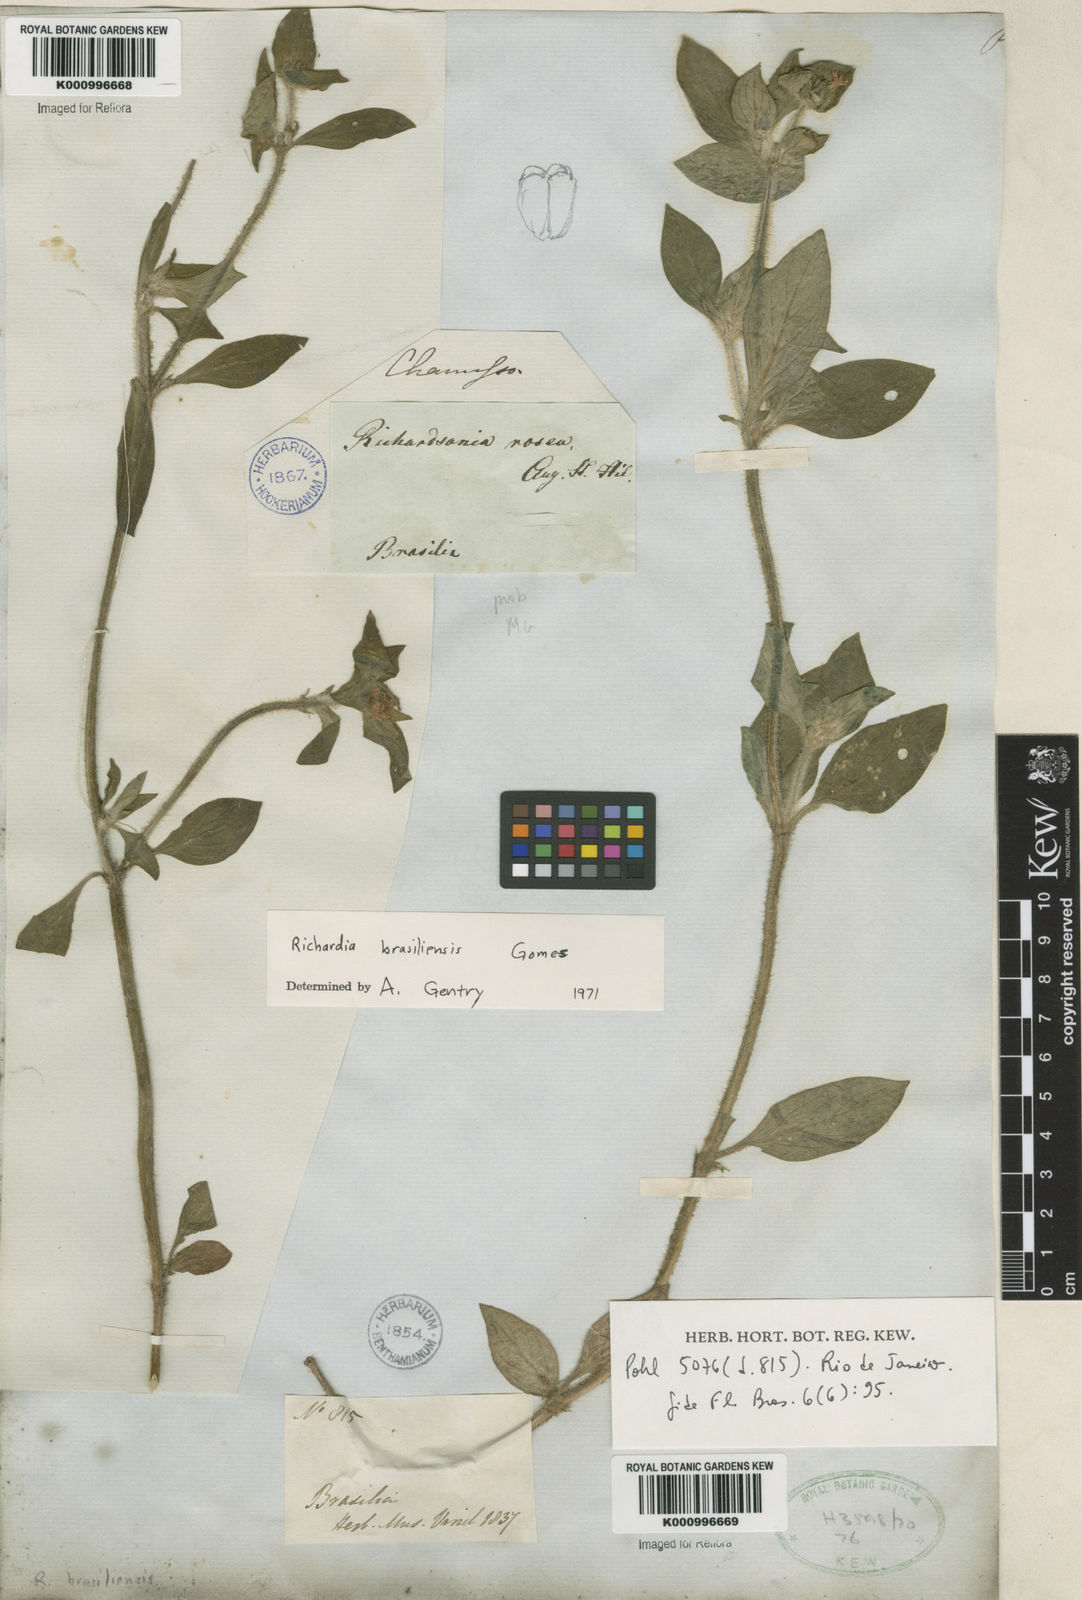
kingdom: Plantae
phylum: Tracheophyta
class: Magnoliopsida
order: Gentianales
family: Rubiaceae
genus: Richardia
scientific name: Richardia brasiliensis
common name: Tropical mexican clover
